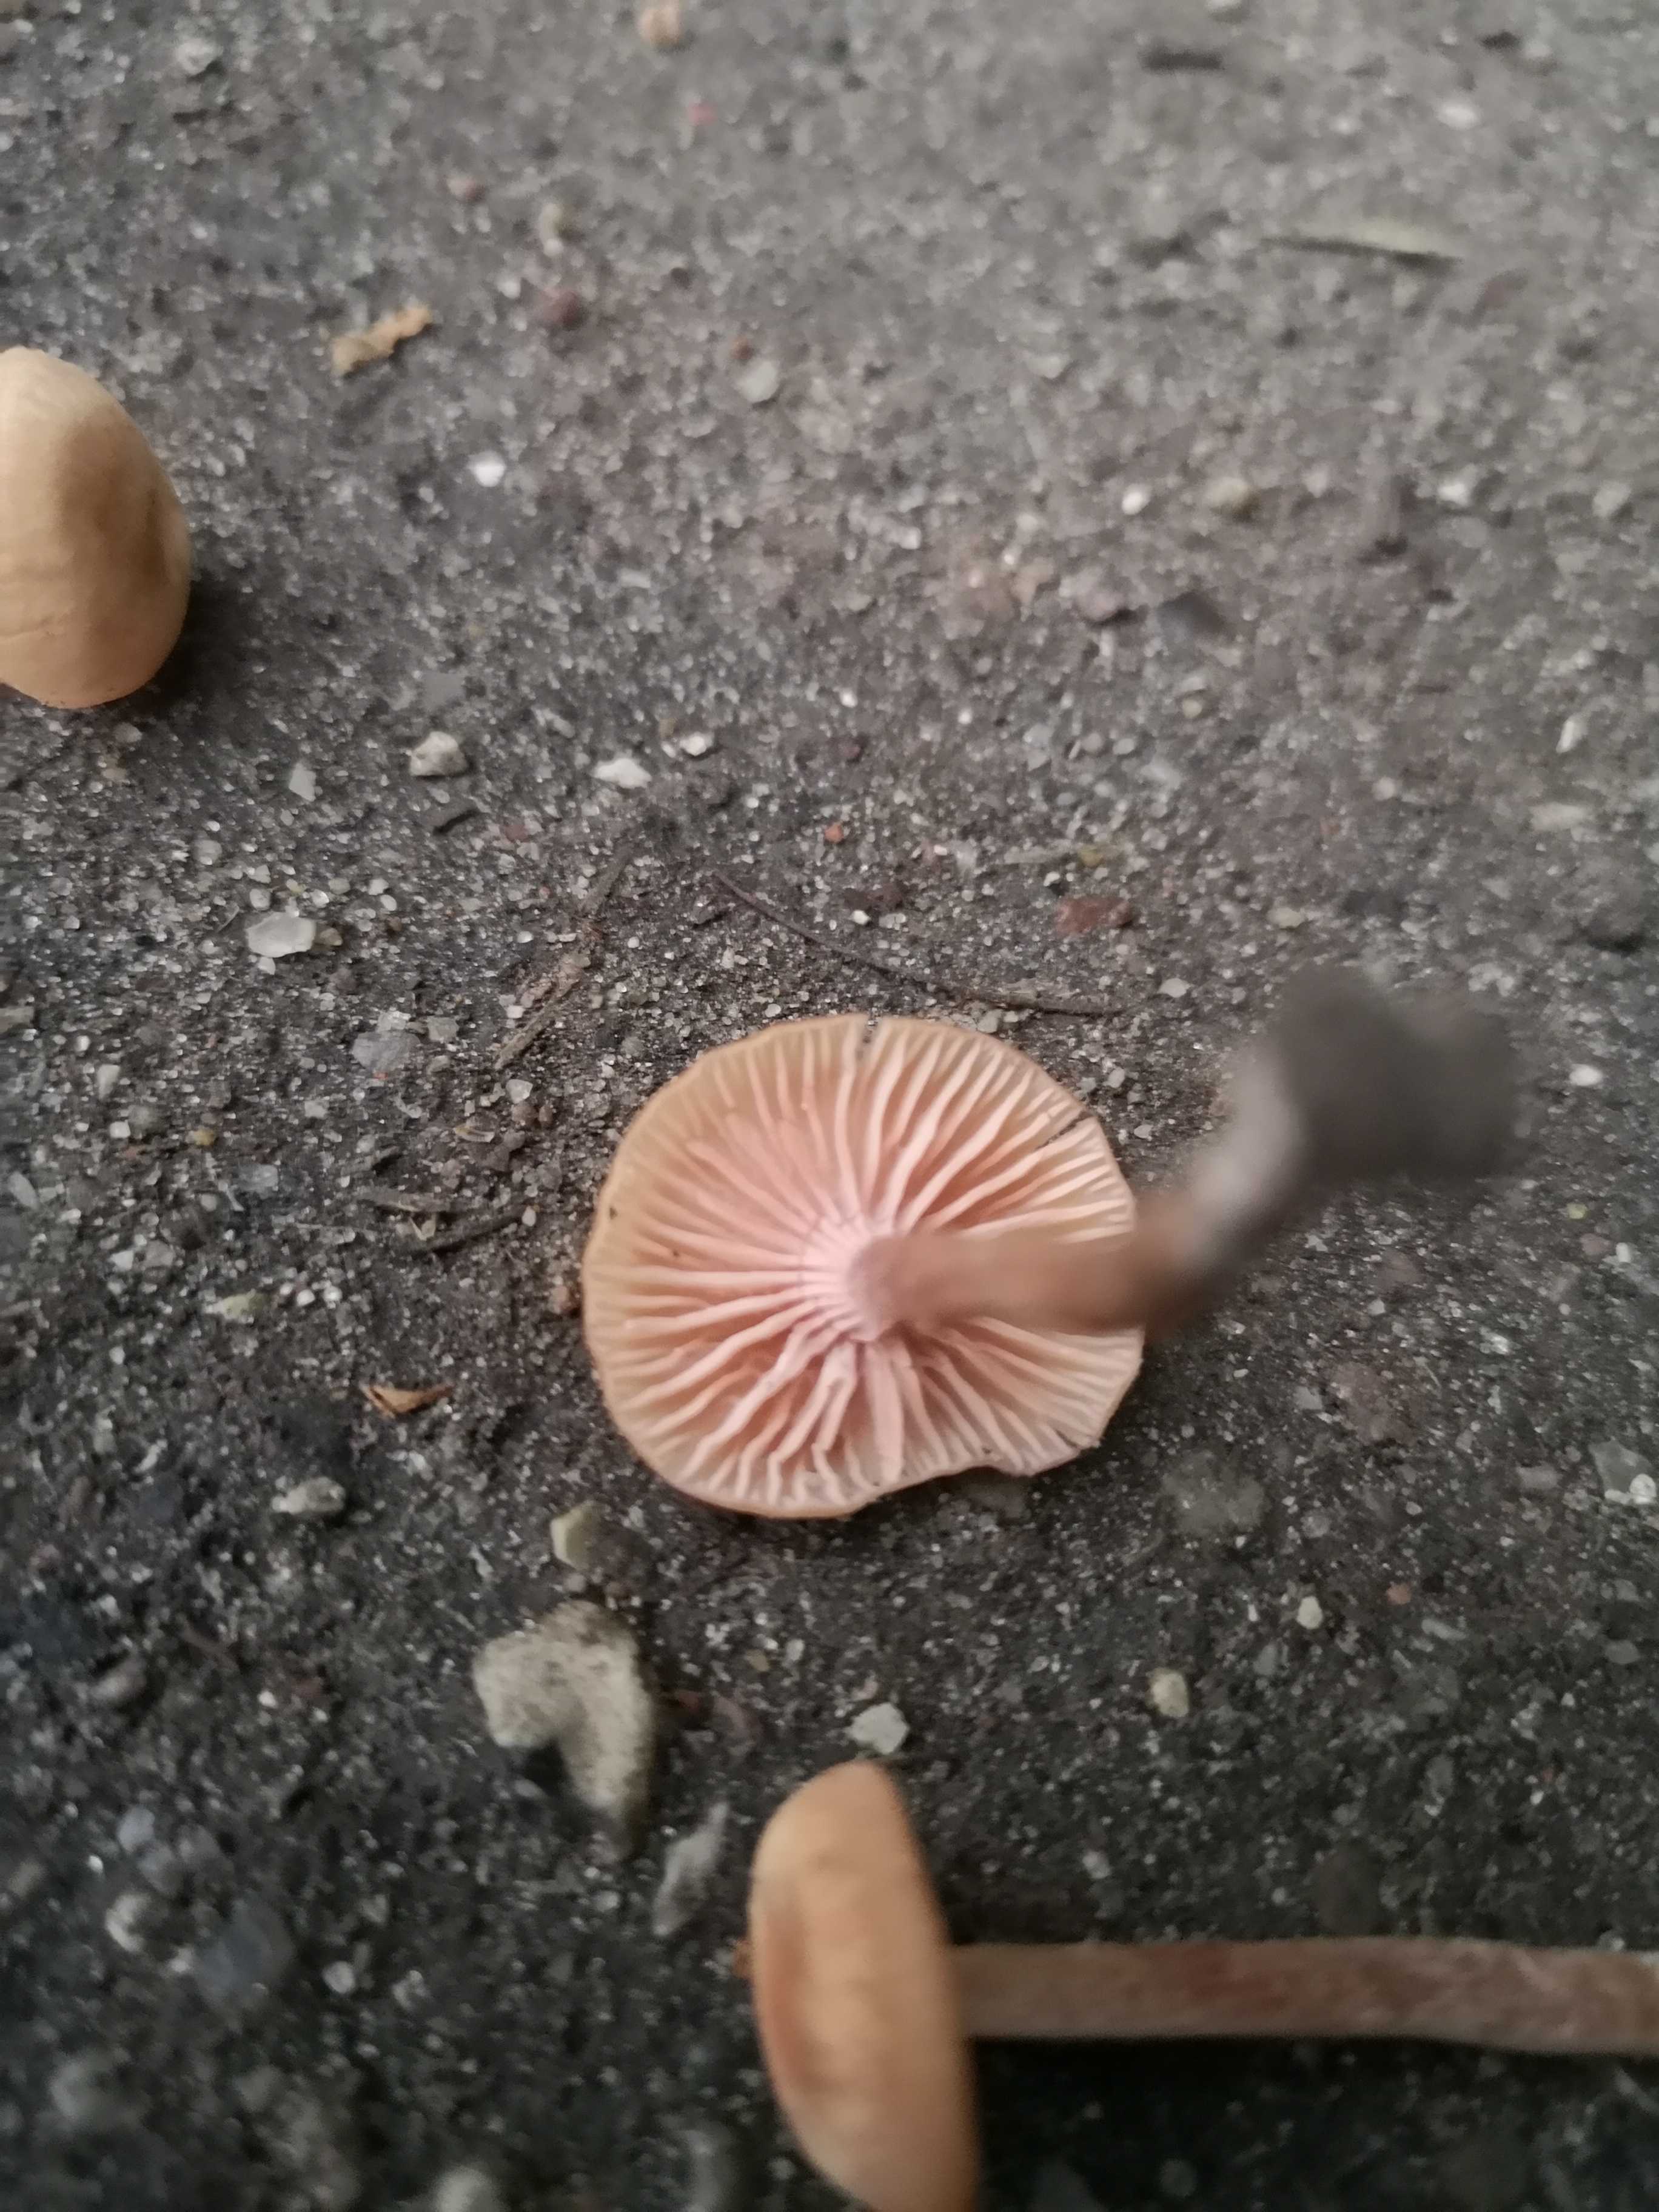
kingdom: Fungi
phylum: Basidiomycota
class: Agaricomycetes
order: Agaricales
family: Hydnangiaceae
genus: Laccaria
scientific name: Laccaria laccata
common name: rød ametysthat
